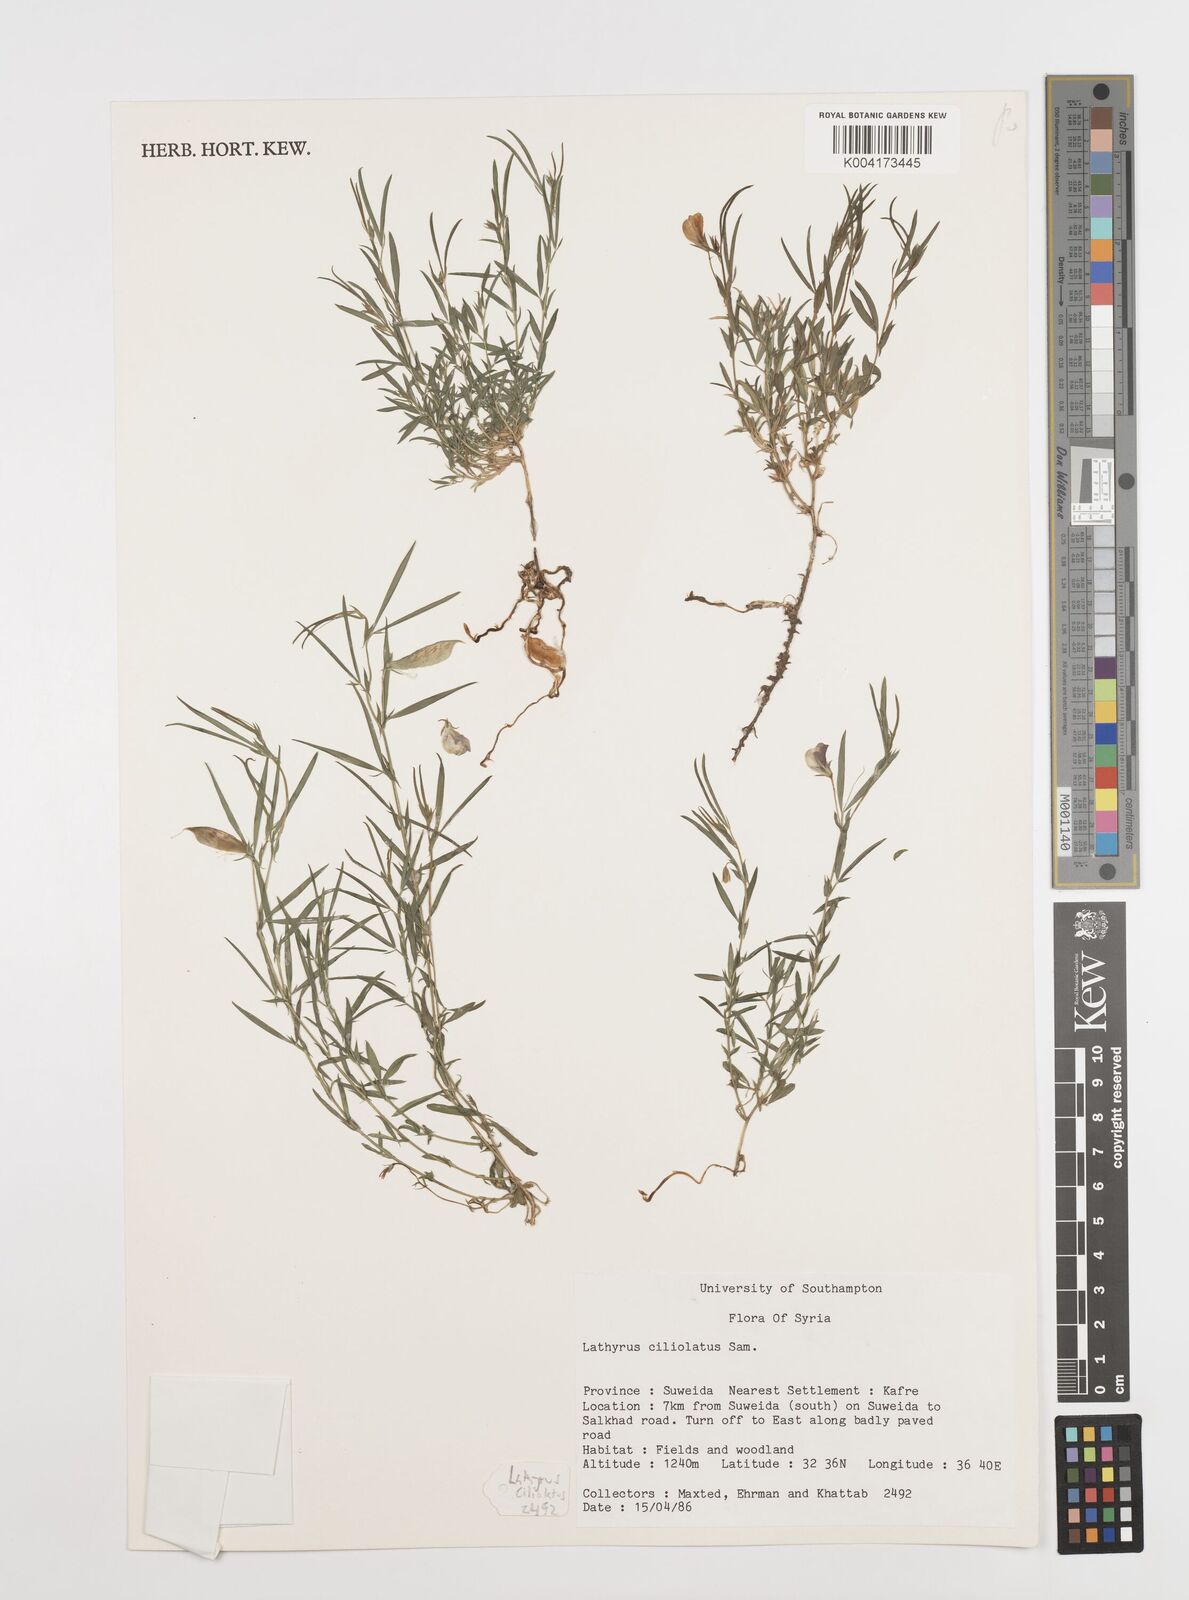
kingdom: Plantae
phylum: Tracheophyta
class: Magnoliopsida
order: Fabales
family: Fabaceae
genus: Lathyrus
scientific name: Lathyrus ciliolatus
